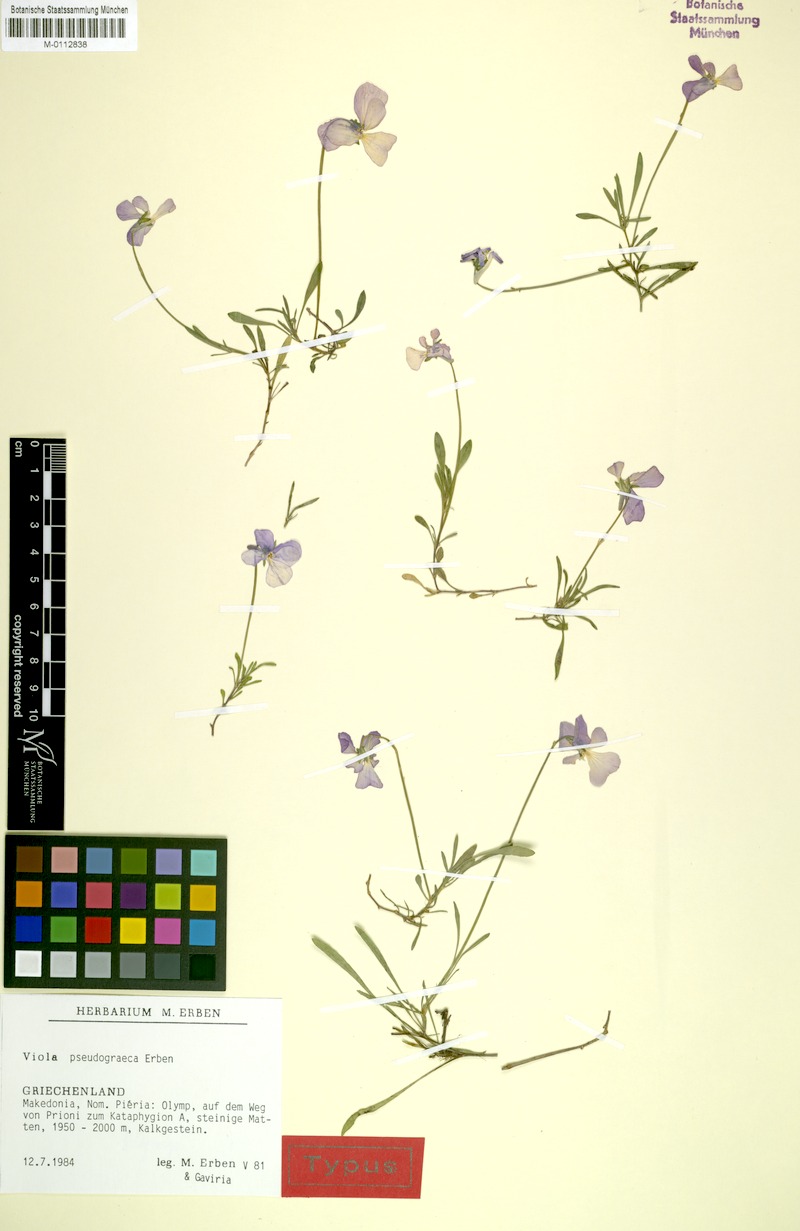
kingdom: Plantae
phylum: Tracheophyta
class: Magnoliopsida
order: Malpighiales
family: Violaceae
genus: Viola
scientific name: Viola pseudograeca
